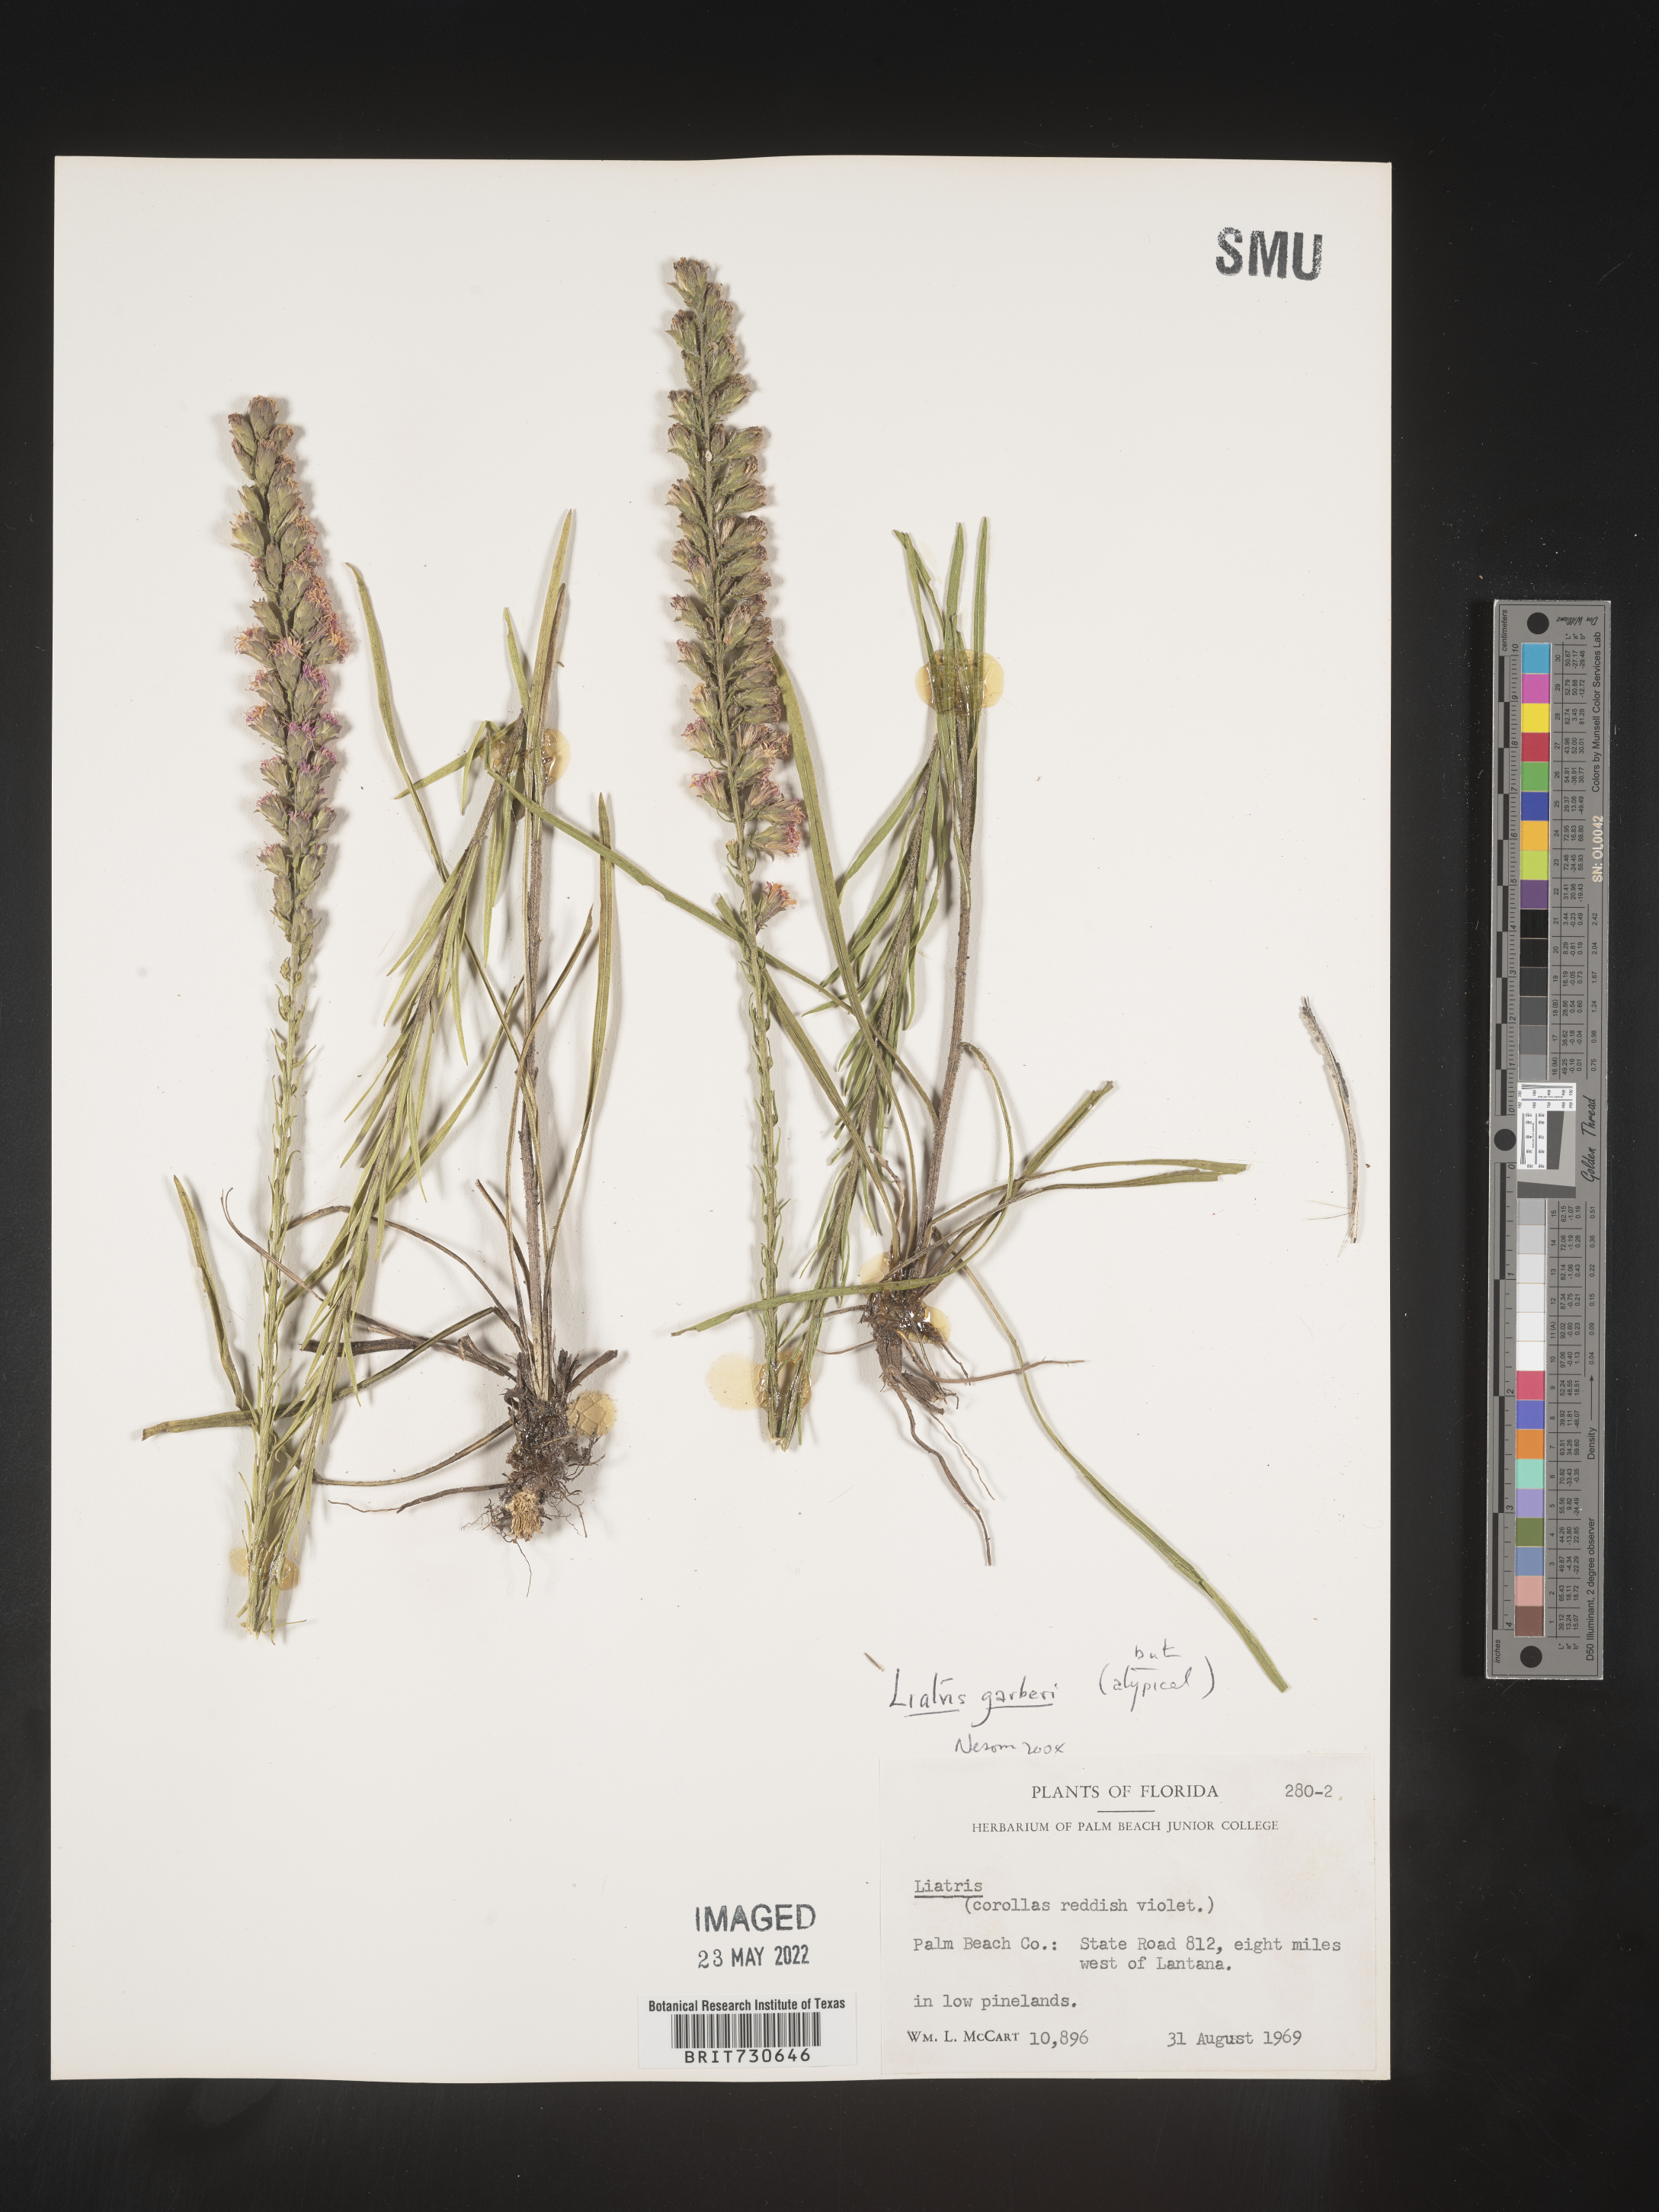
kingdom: Plantae
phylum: Tracheophyta
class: Magnoliopsida
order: Asterales
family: Asteraceae
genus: Liatris
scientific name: Liatris garberi
